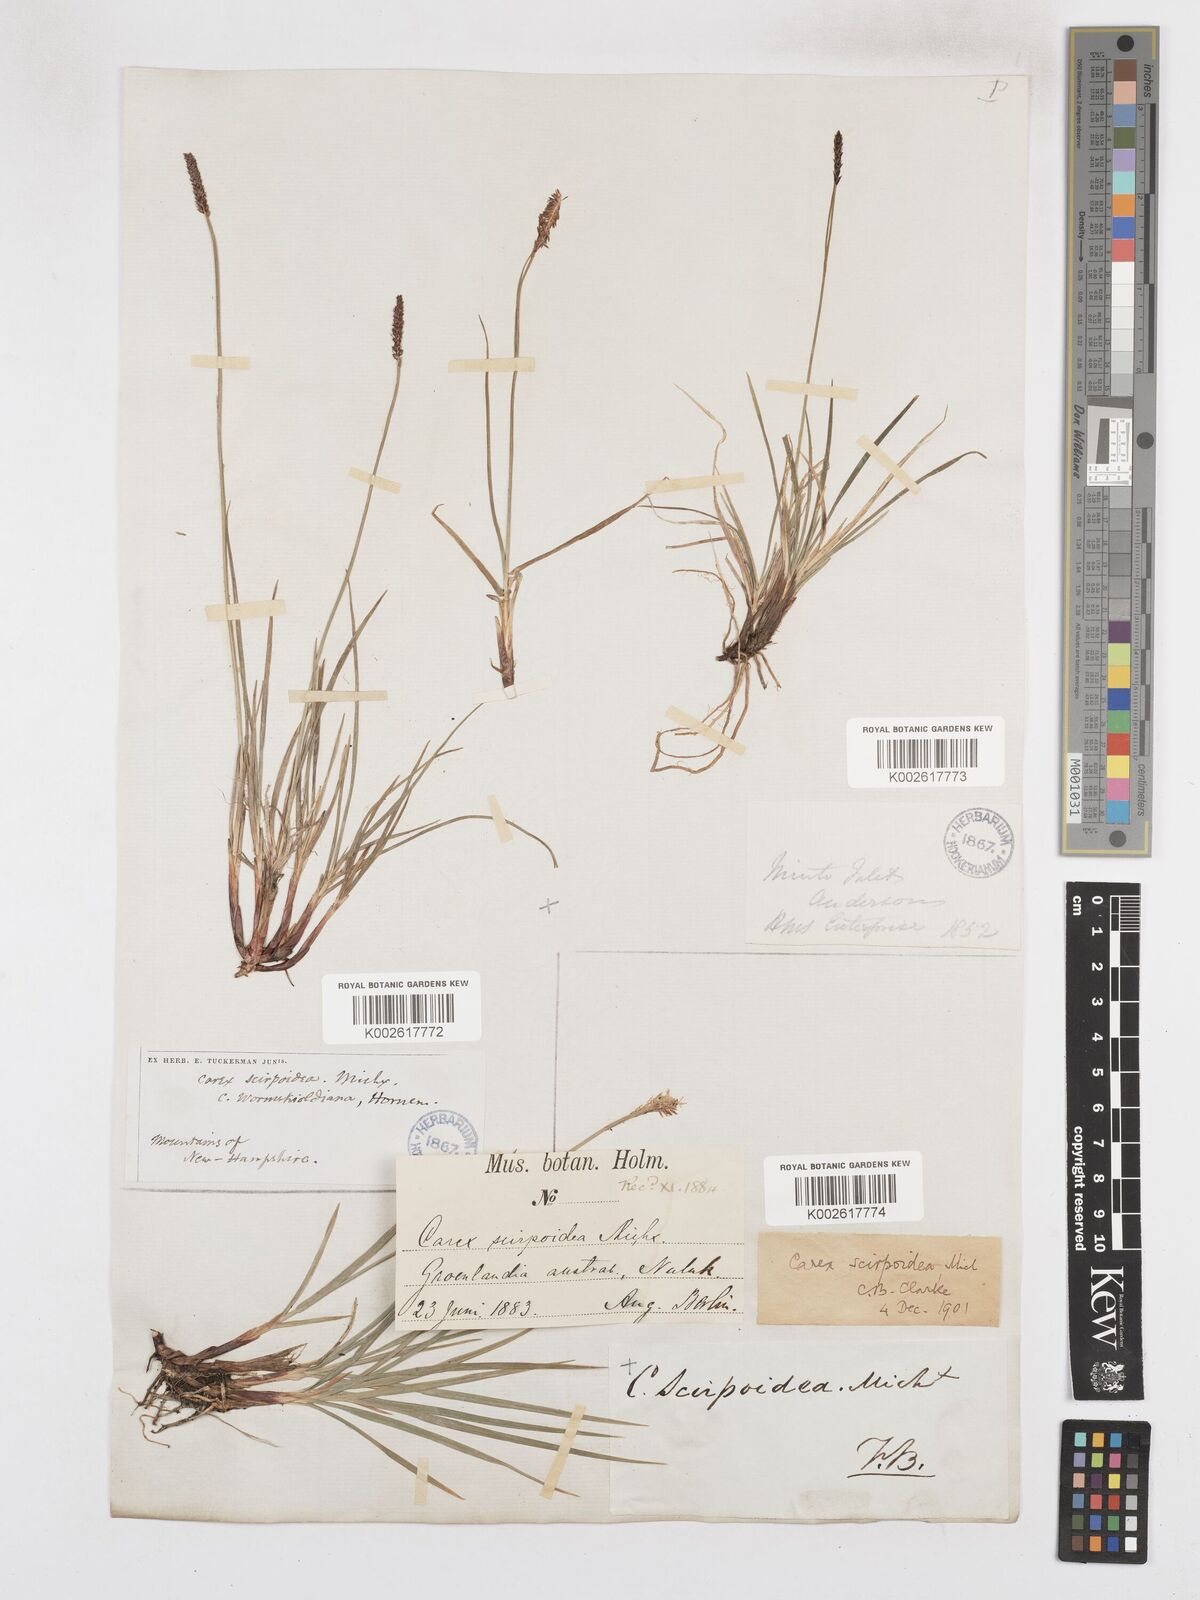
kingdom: Plantae
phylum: Tracheophyta
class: Liliopsida
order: Poales
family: Cyperaceae
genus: Carex
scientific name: Carex scirpoidea
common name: Canada single-spike sedge
